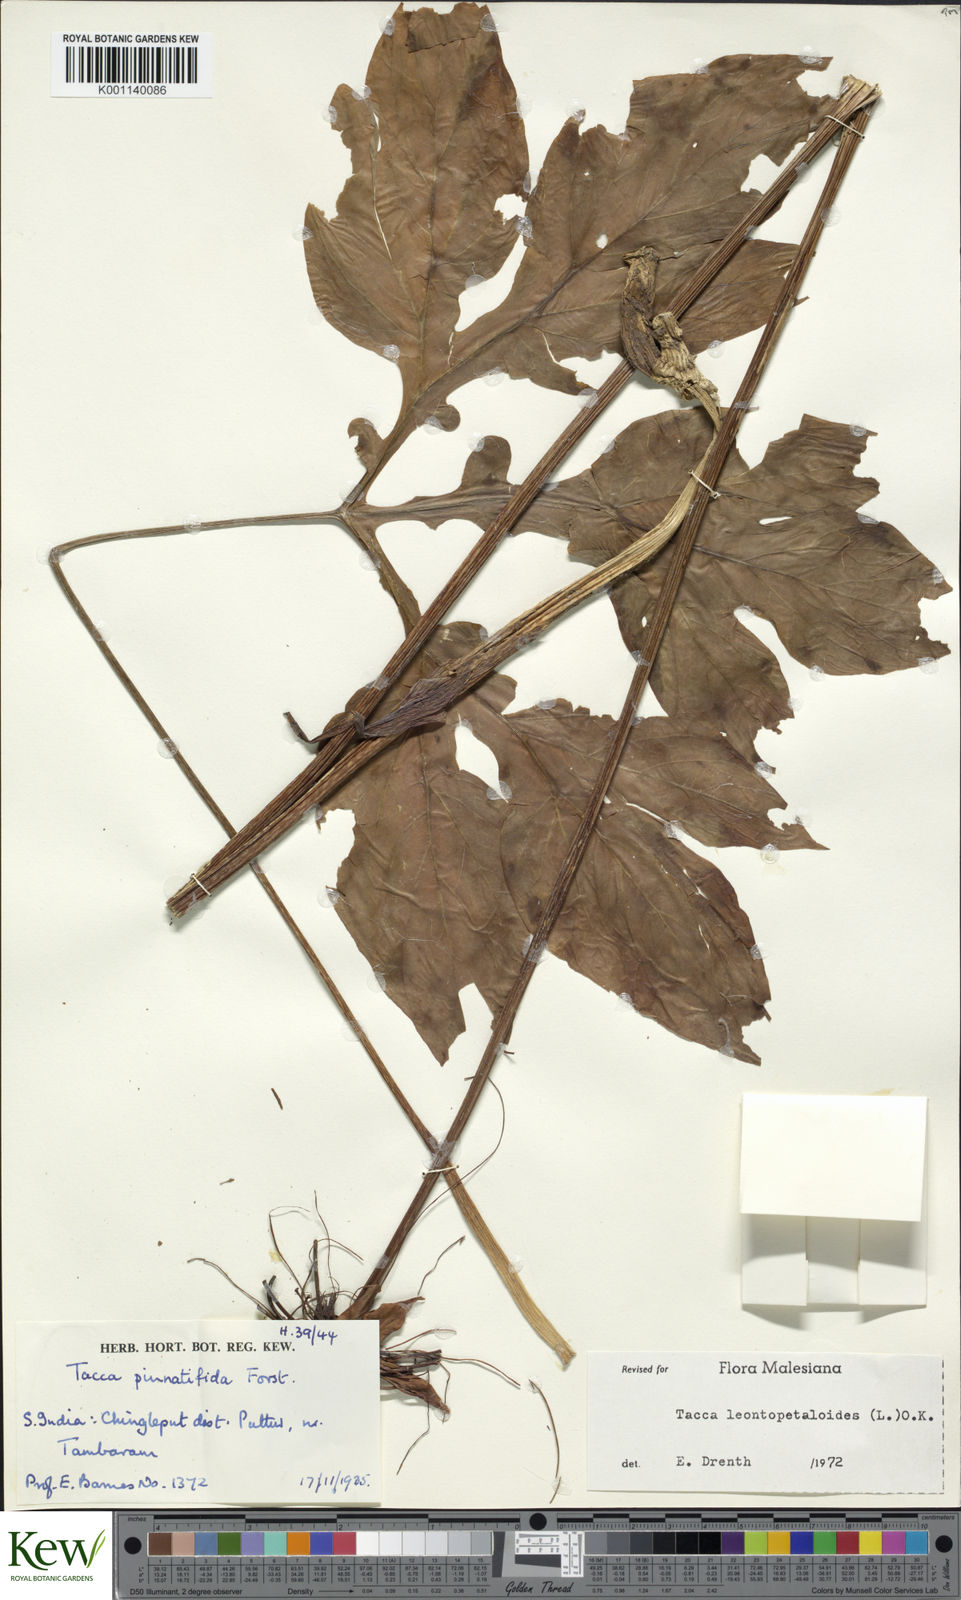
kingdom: Plantae
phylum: Tracheophyta
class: Liliopsida
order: Dioscoreales
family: Dioscoreaceae
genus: Tacca
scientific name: Tacca leontopetaloides
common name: Arrowroot
